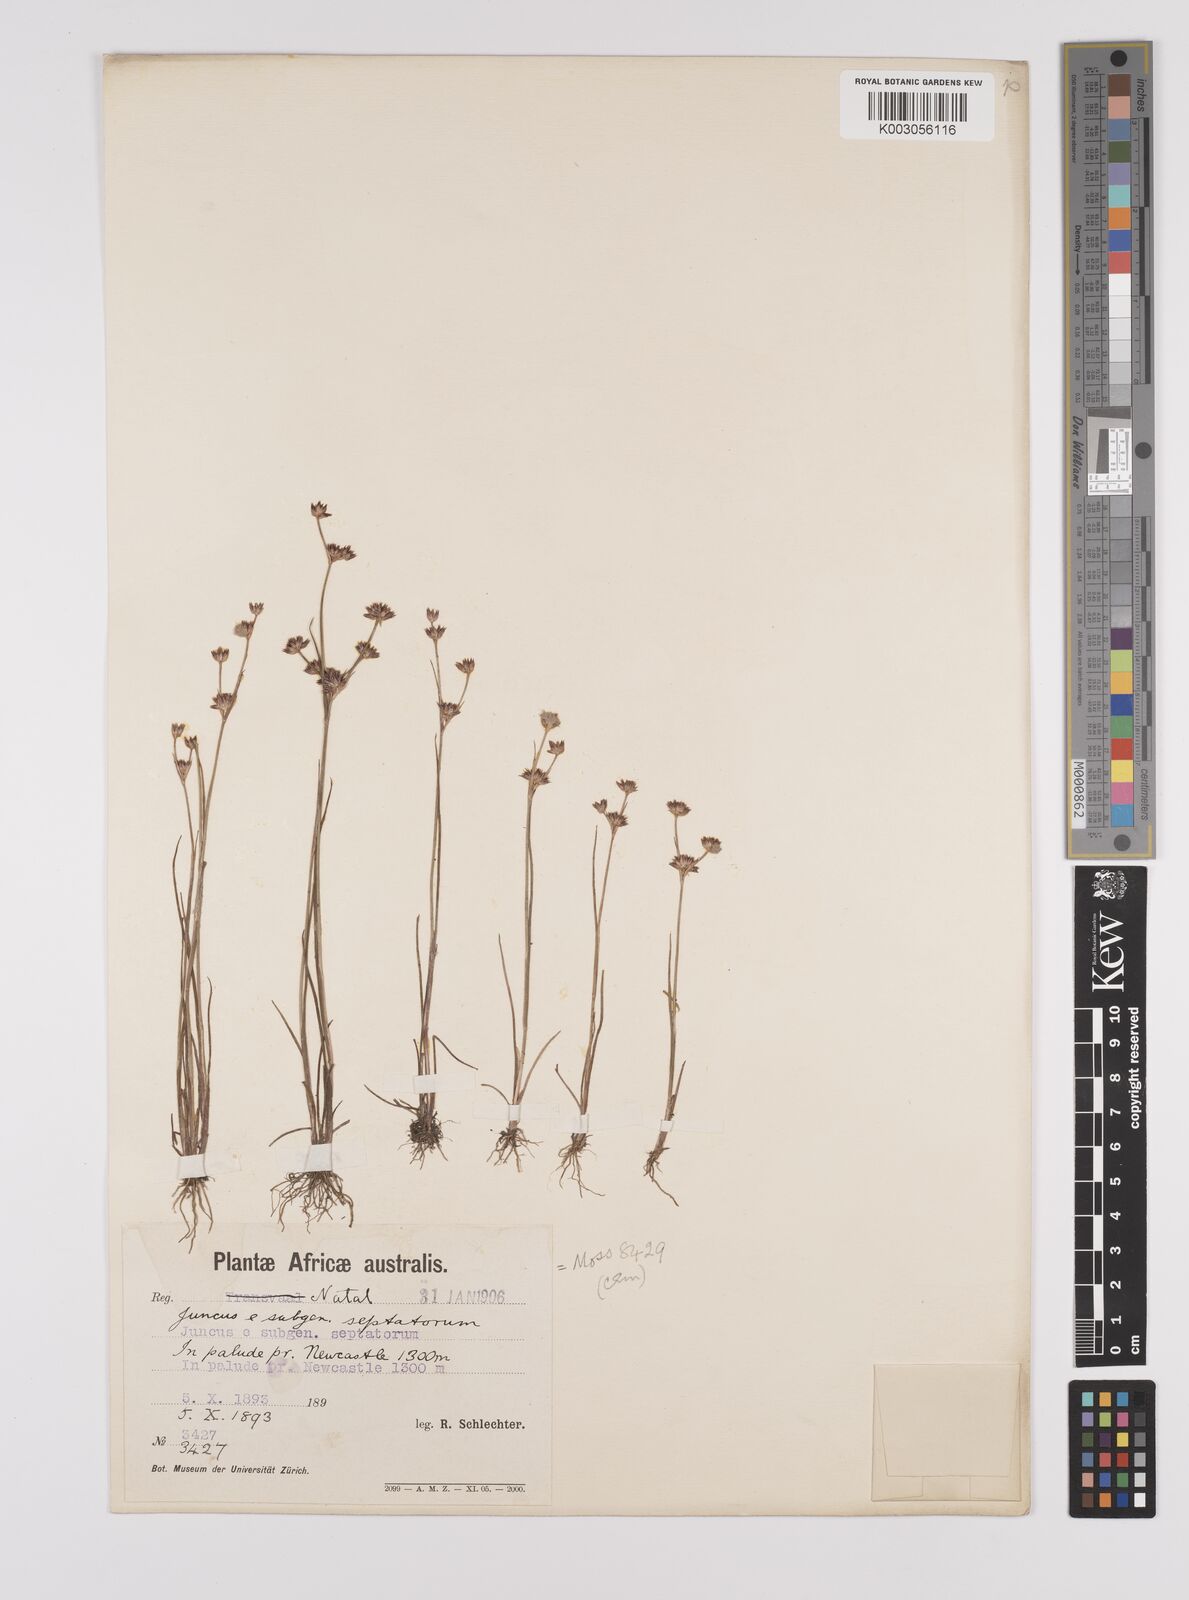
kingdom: Plantae
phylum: Tracheophyta
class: Liliopsida
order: Poales
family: Juncaceae
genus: Juncus
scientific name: Juncus
